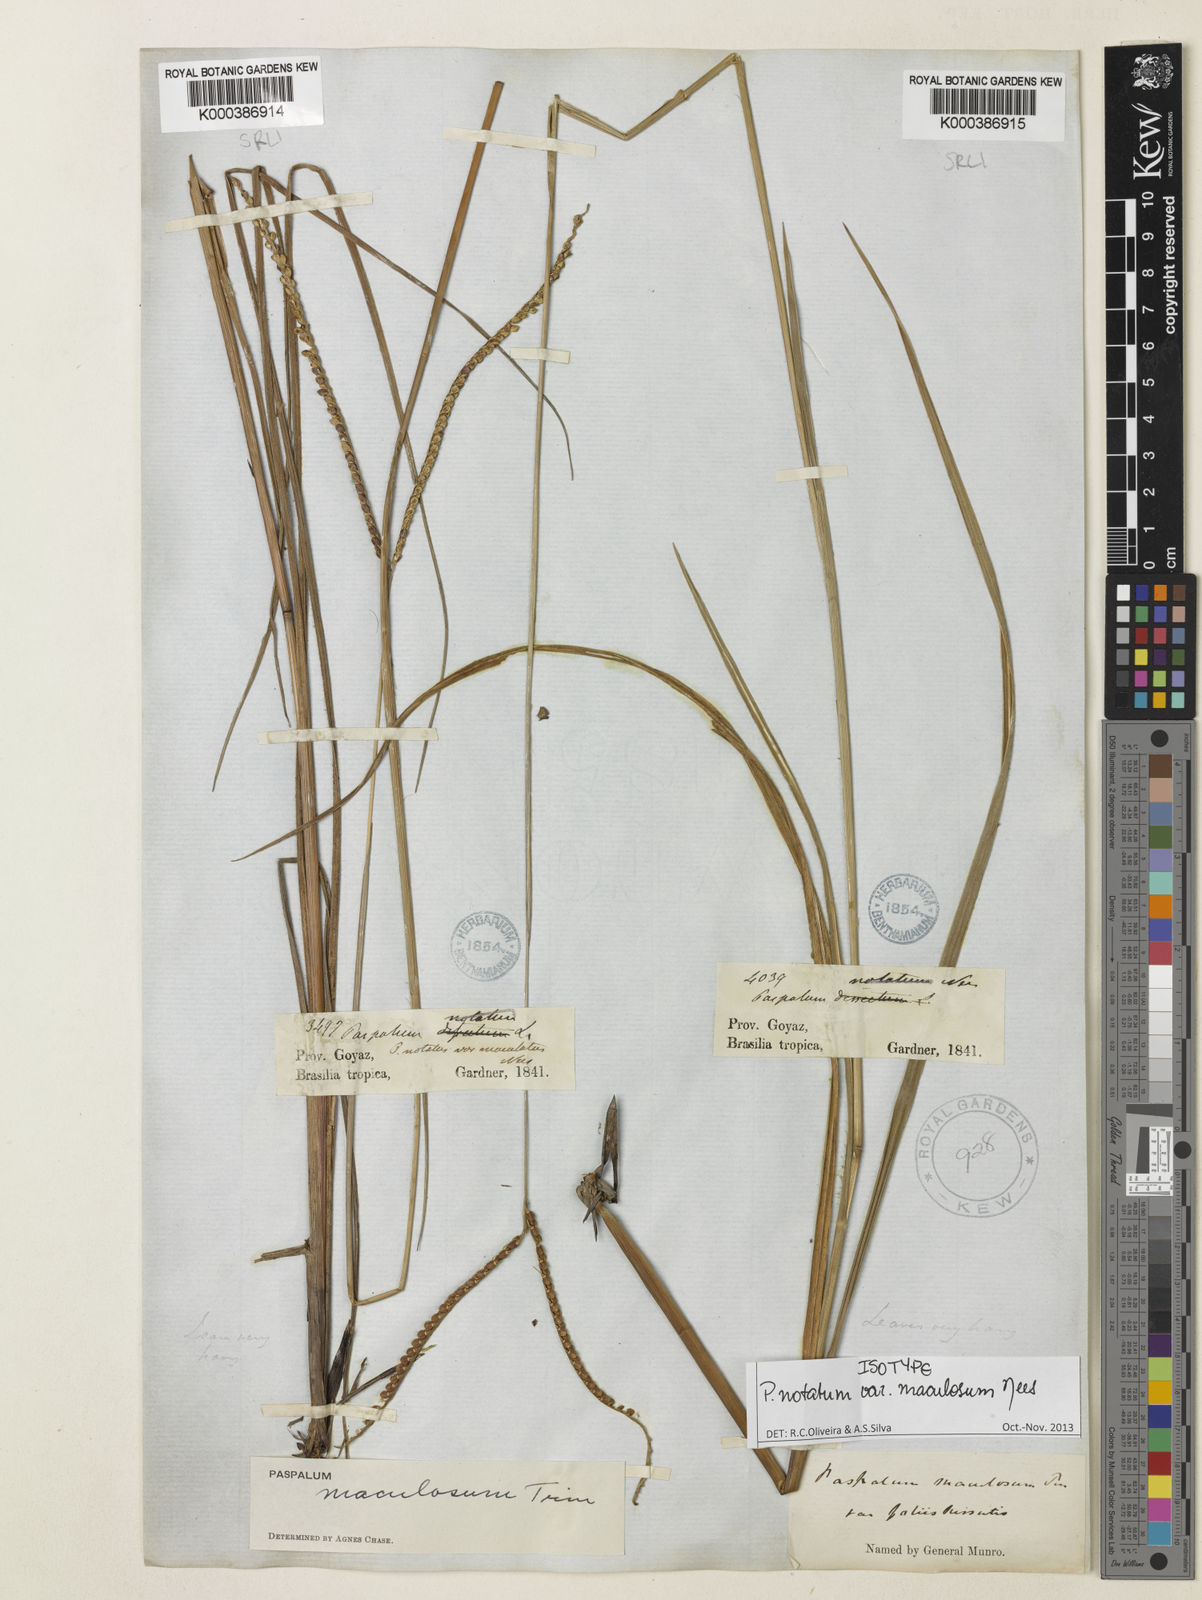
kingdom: Plantae
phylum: Tracheophyta
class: Liliopsida
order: Poales
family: Poaceae
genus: Paspalum
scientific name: Paspalum maculosum
